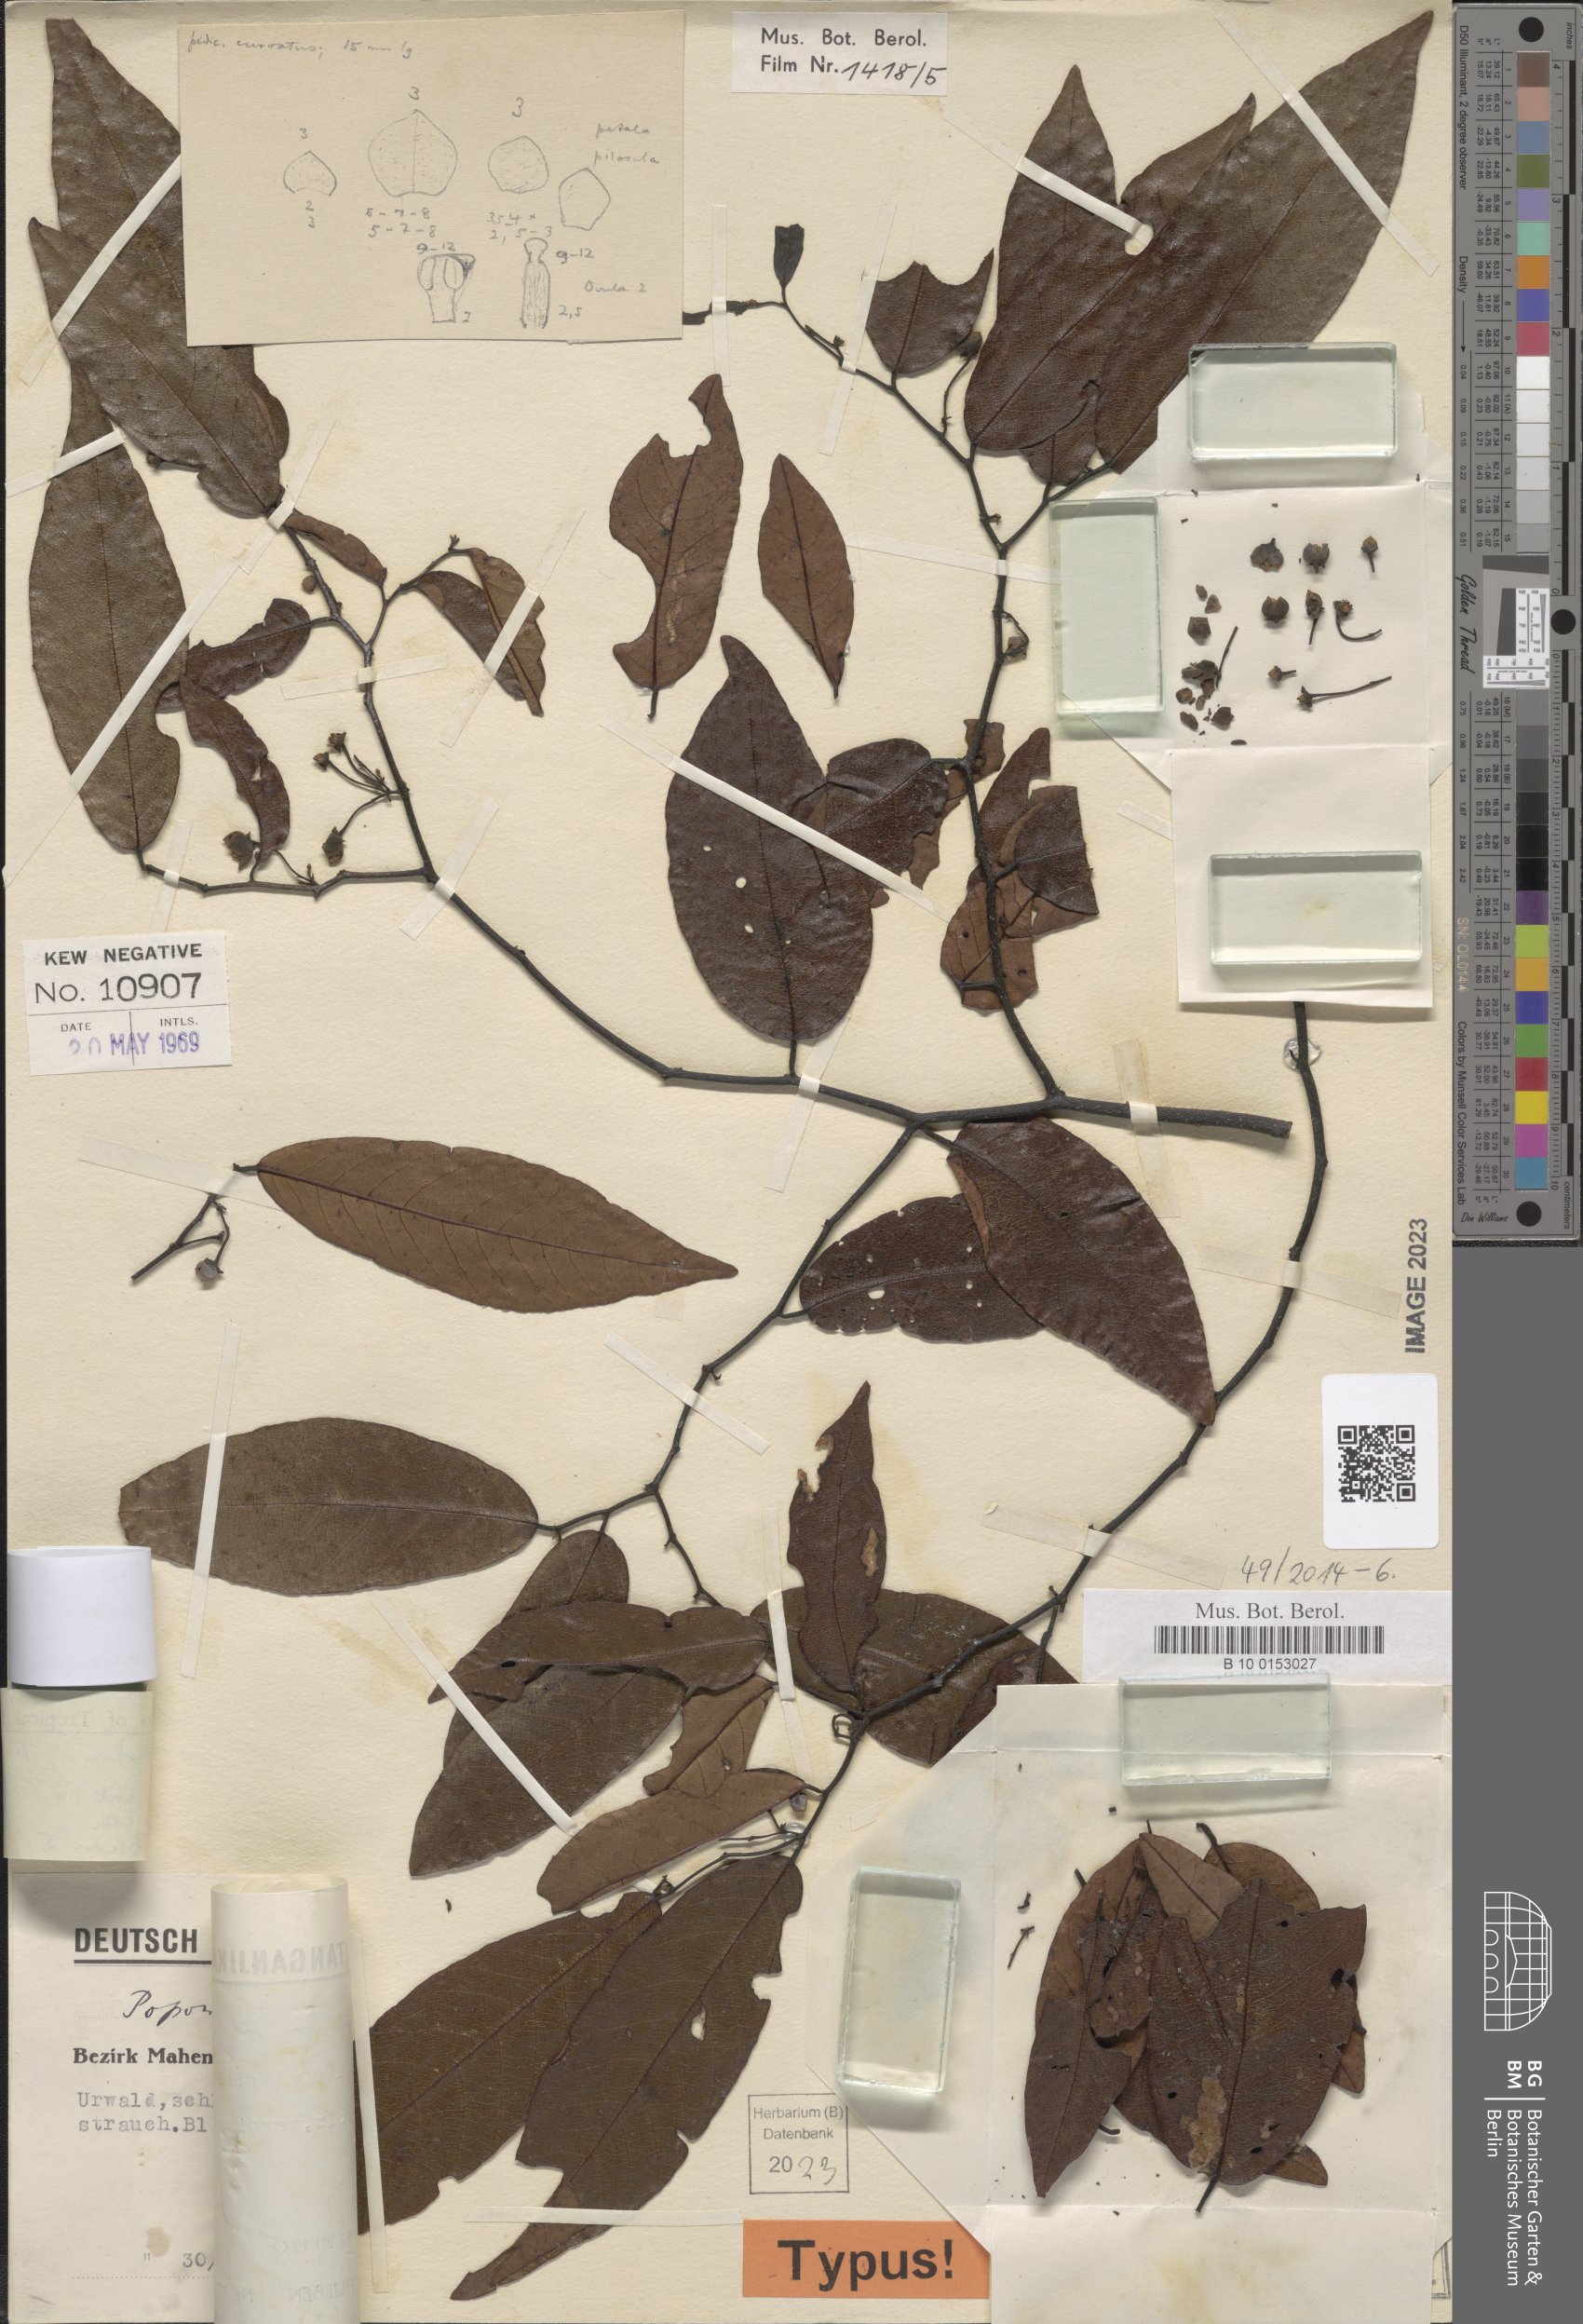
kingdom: Plantae
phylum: Tracheophyta
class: Magnoliopsida
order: Magnoliales
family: Annonaceae
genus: Monanthotaxis
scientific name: Monanthotaxis dictyoneura
